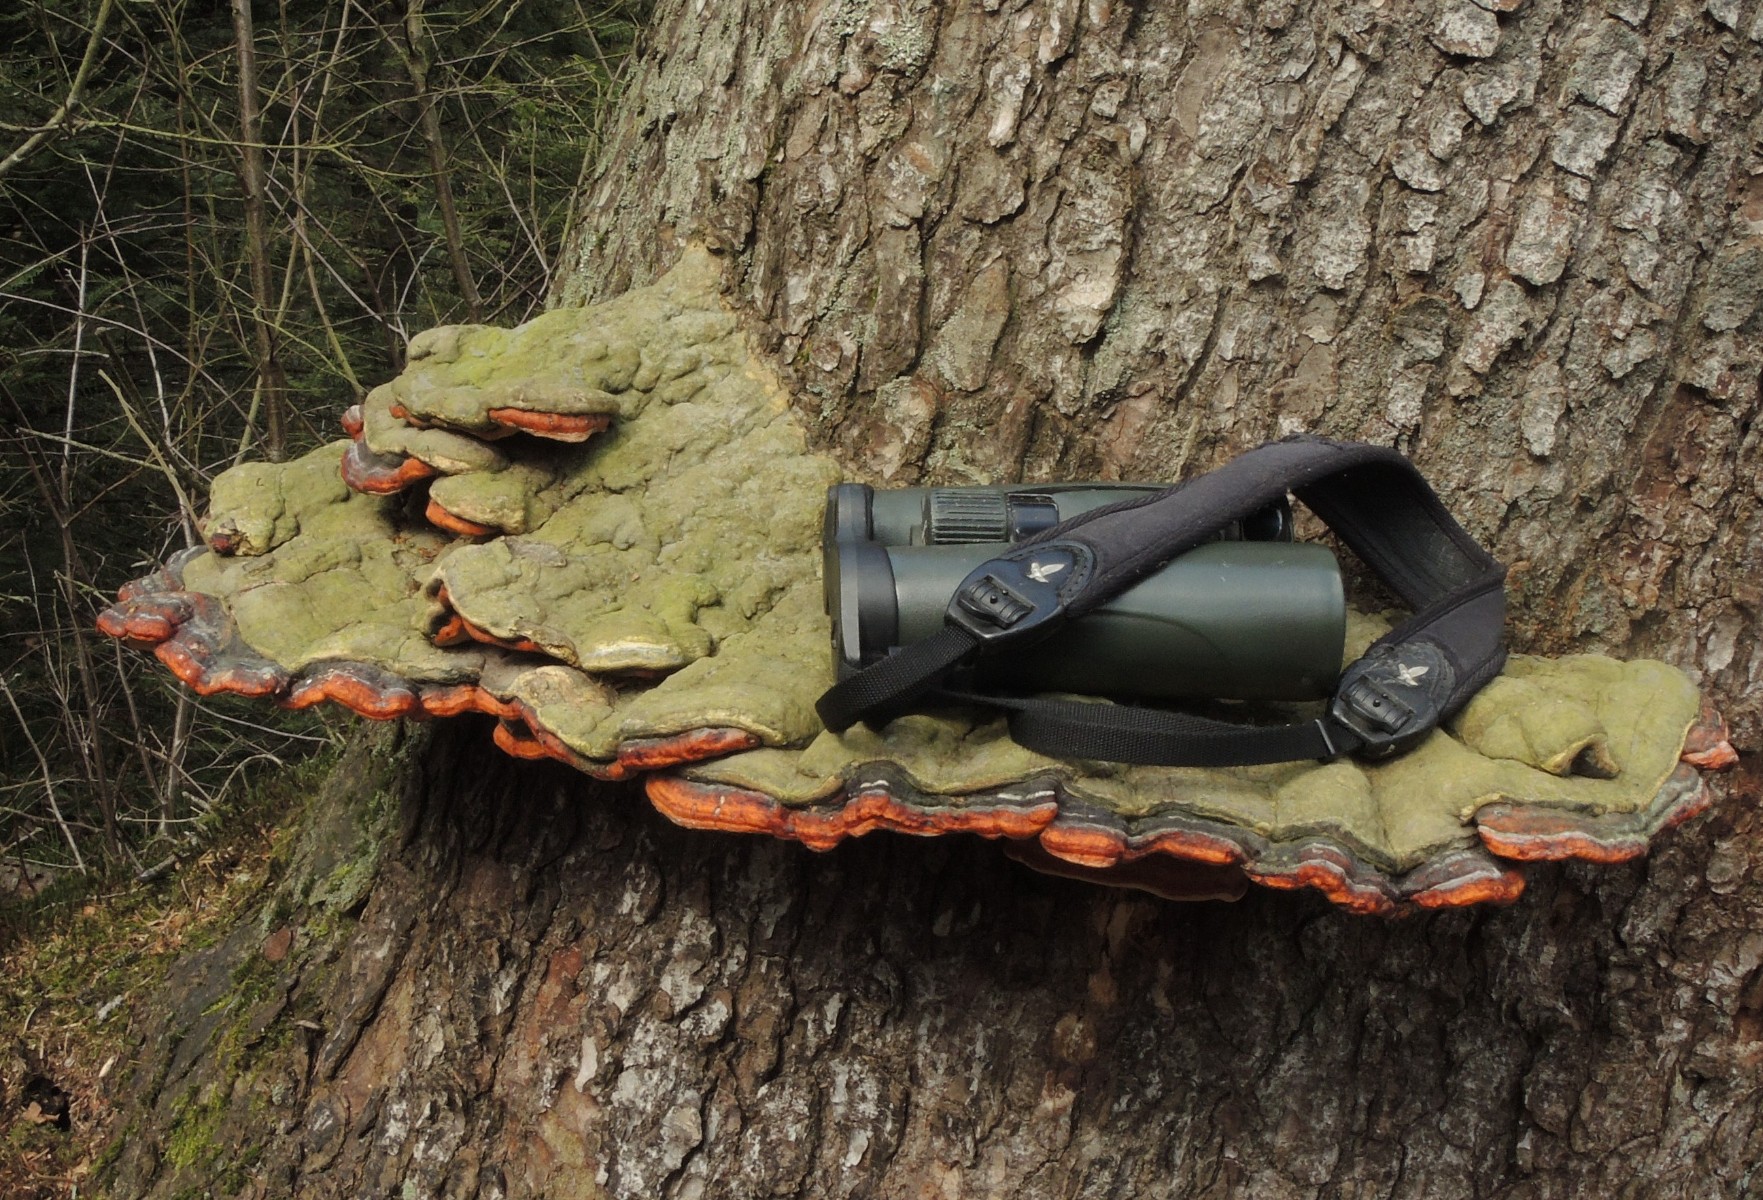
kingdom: Fungi
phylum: Basidiomycota
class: Agaricomycetes
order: Polyporales
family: Fomitopsidaceae
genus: Fomitopsis
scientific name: Fomitopsis pinicola
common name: randbæltet hovporesvamp
